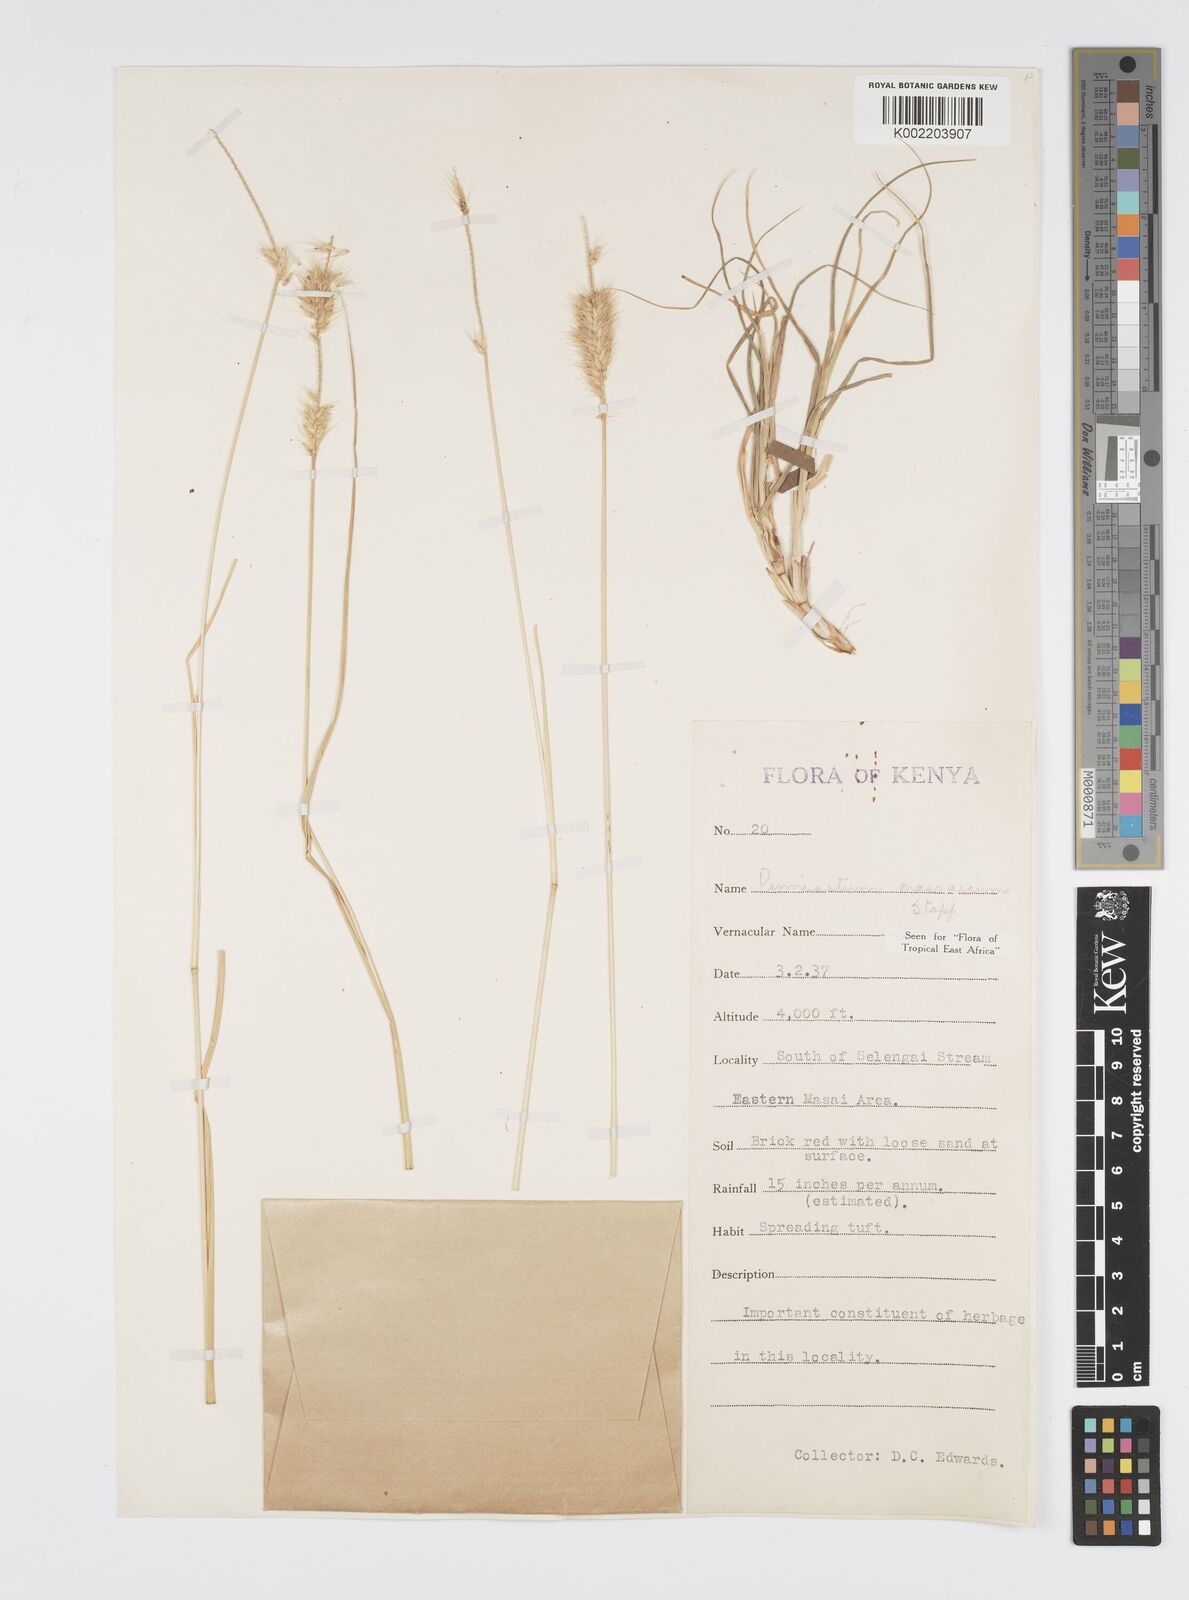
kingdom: Plantae
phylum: Tracheophyta
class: Liliopsida
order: Poales
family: Poaceae
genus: Cenchrus
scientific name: Cenchrus massaicus
